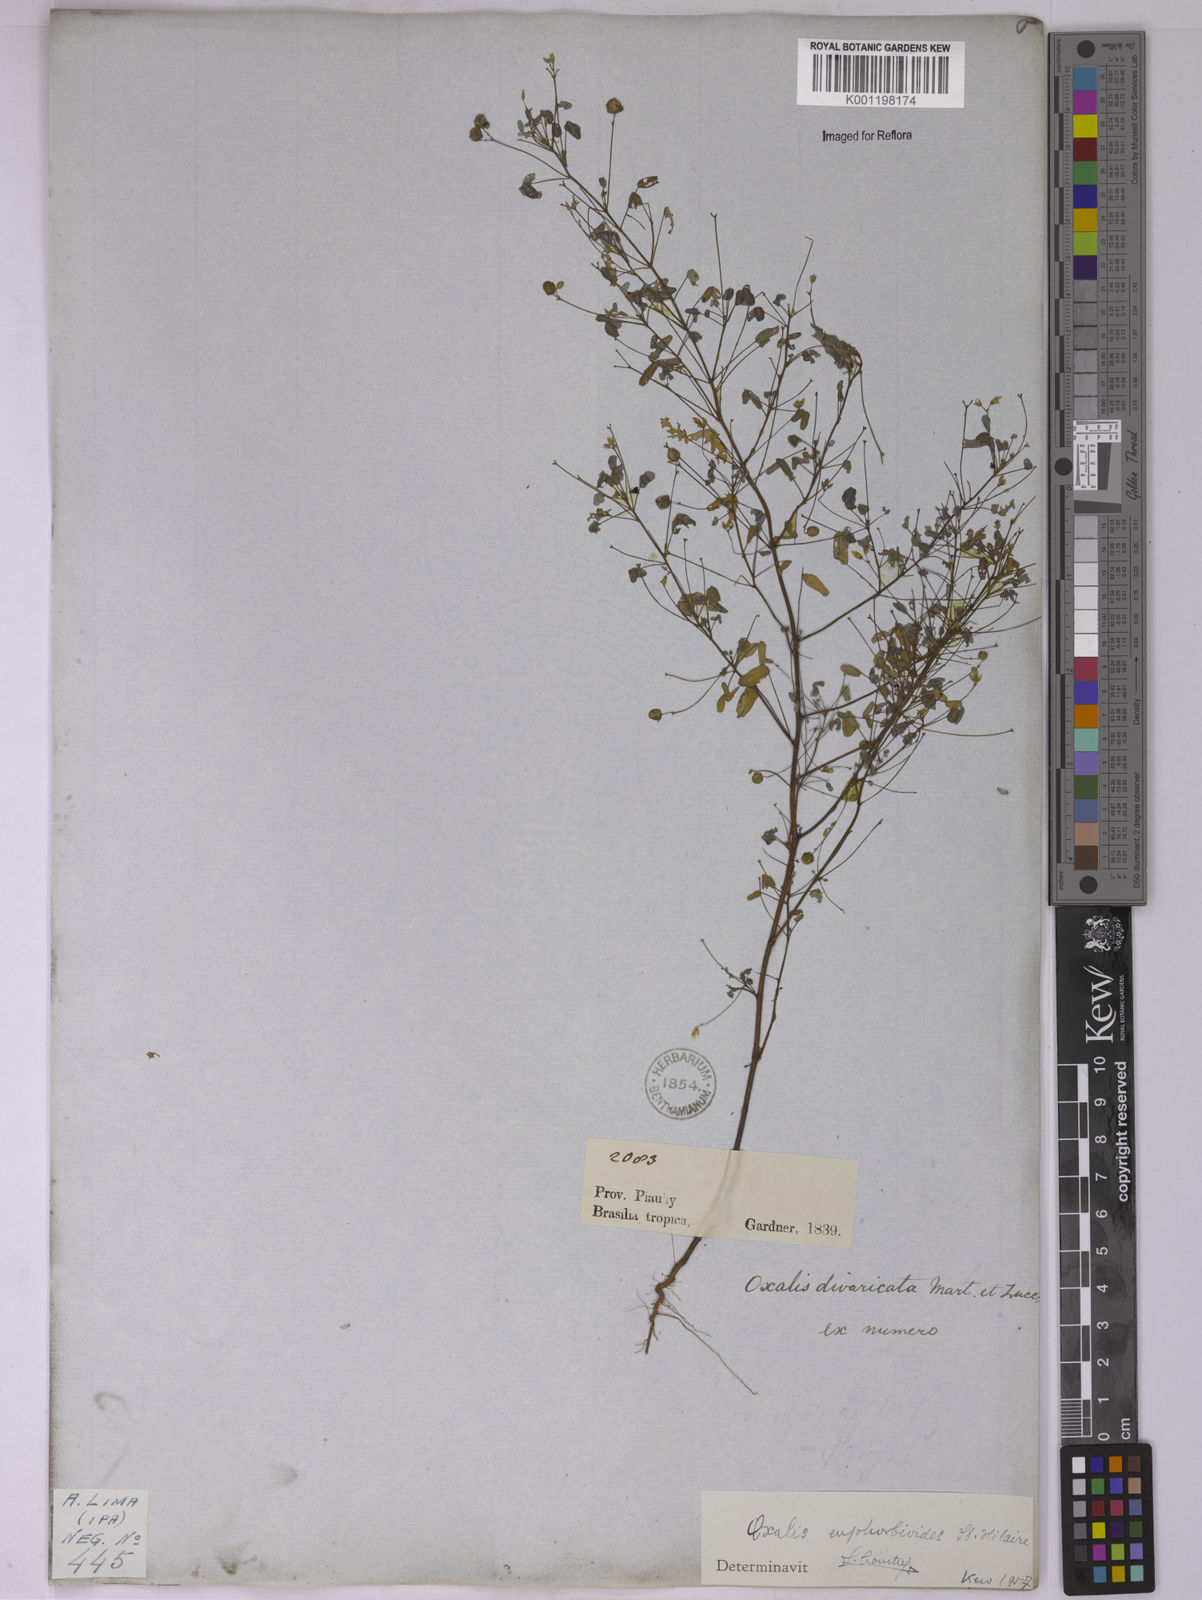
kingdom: Plantae
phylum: Tracheophyta
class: Magnoliopsida
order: Oxalidales
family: Oxalidaceae
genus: Oxalis
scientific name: Oxalis divaricata
